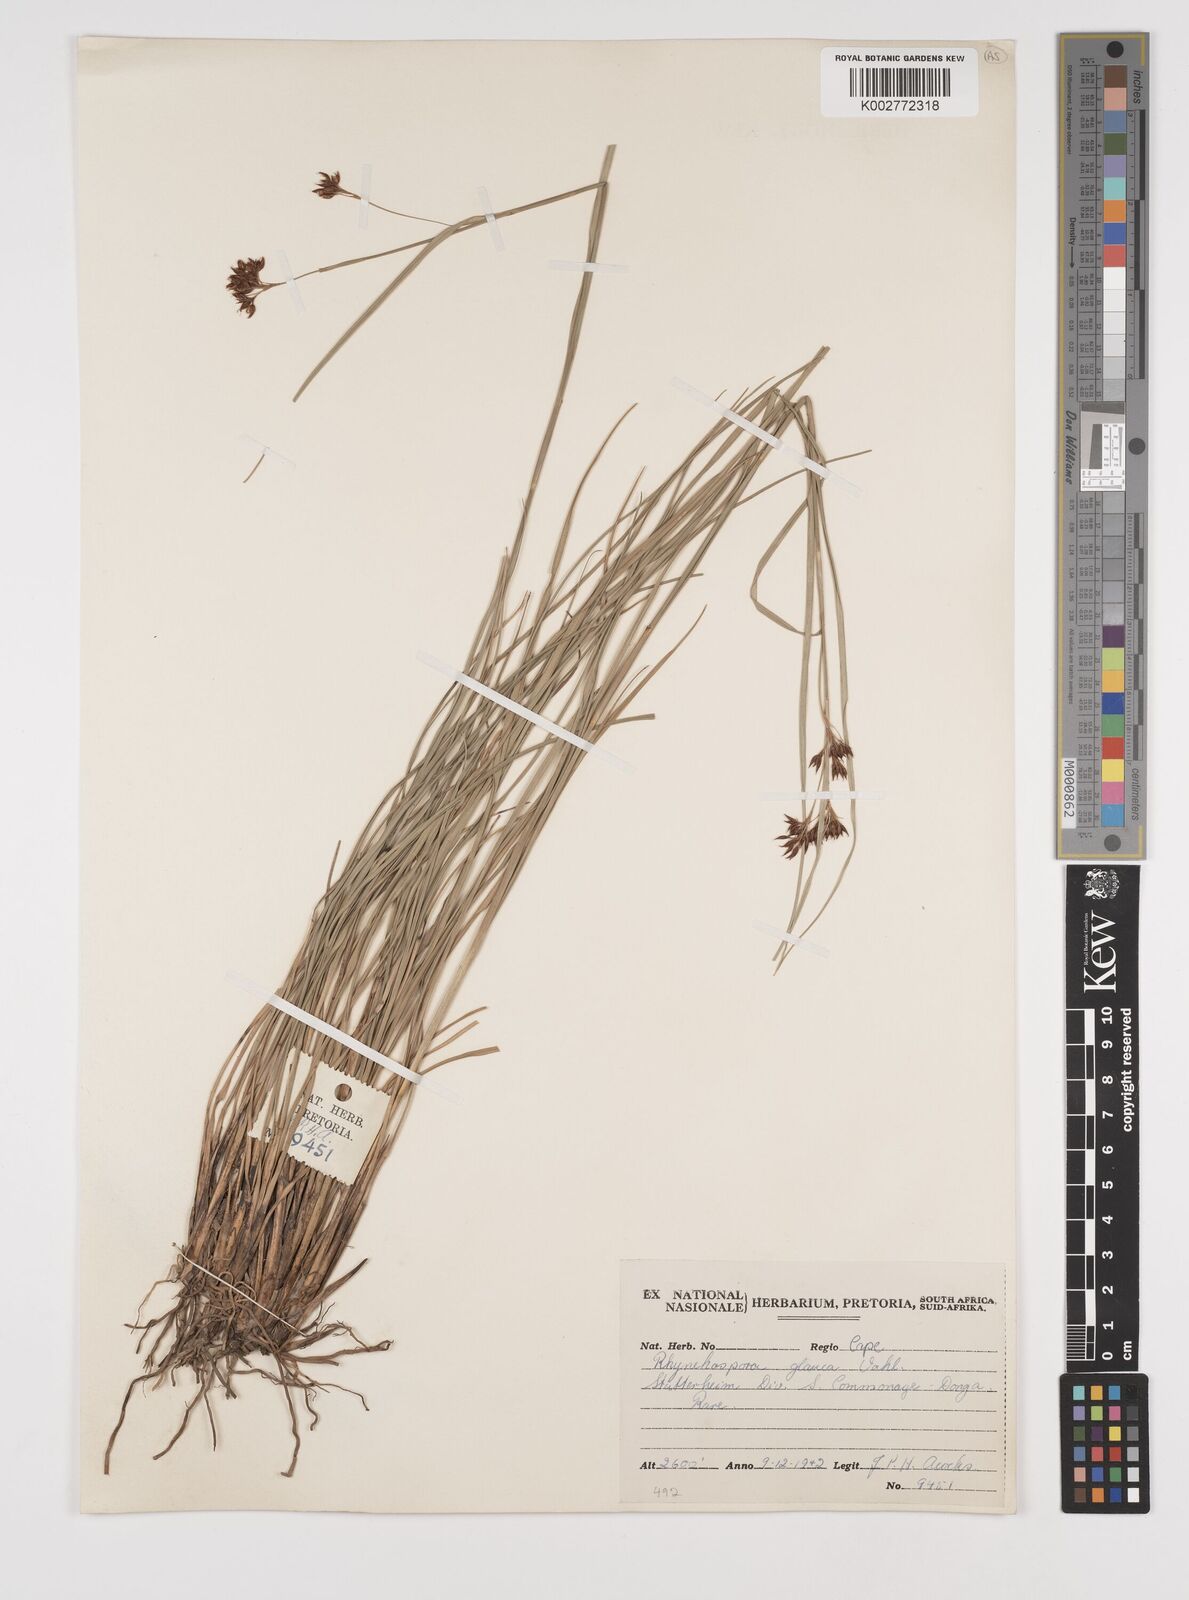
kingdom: Plantae
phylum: Tracheophyta
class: Liliopsida
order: Poales
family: Cyperaceae
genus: Rhynchospora
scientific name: Rhynchospora rugosa
